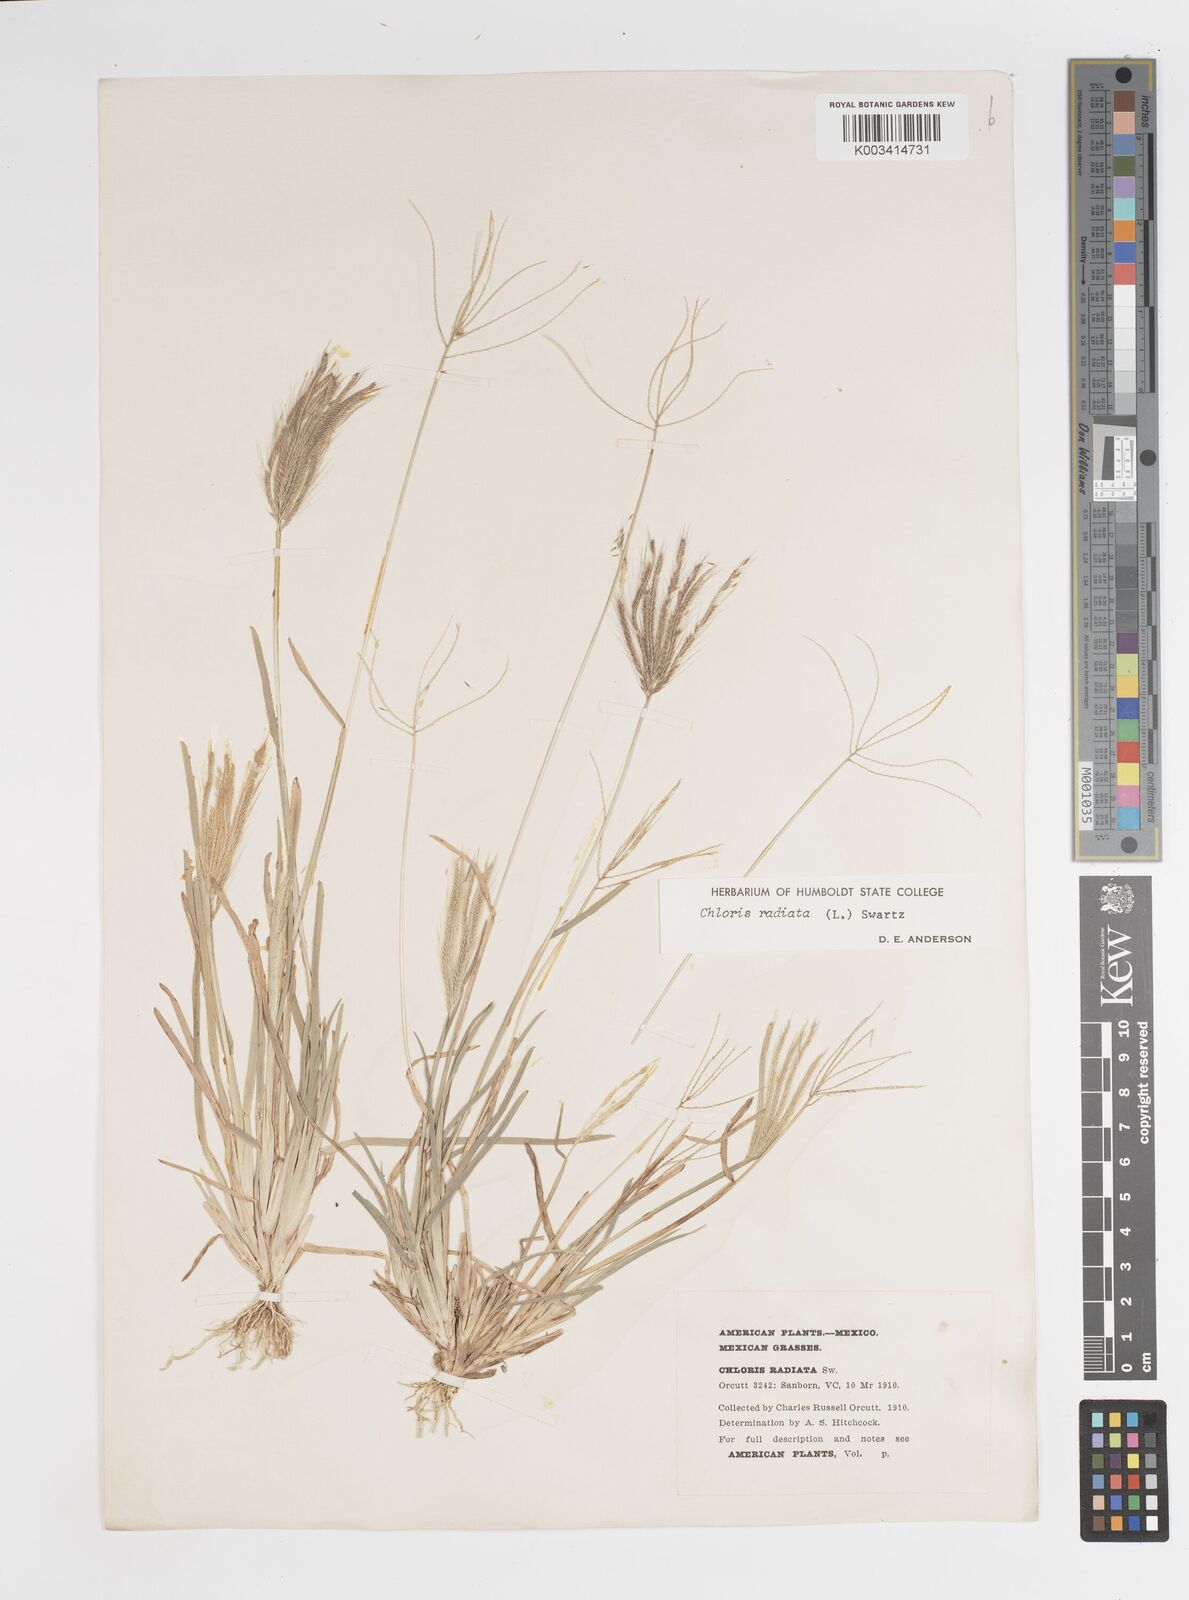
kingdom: Plantae
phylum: Tracheophyta
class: Liliopsida
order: Poales
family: Poaceae
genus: Chloris
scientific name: Chloris radiata
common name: Radiate fingergrass
